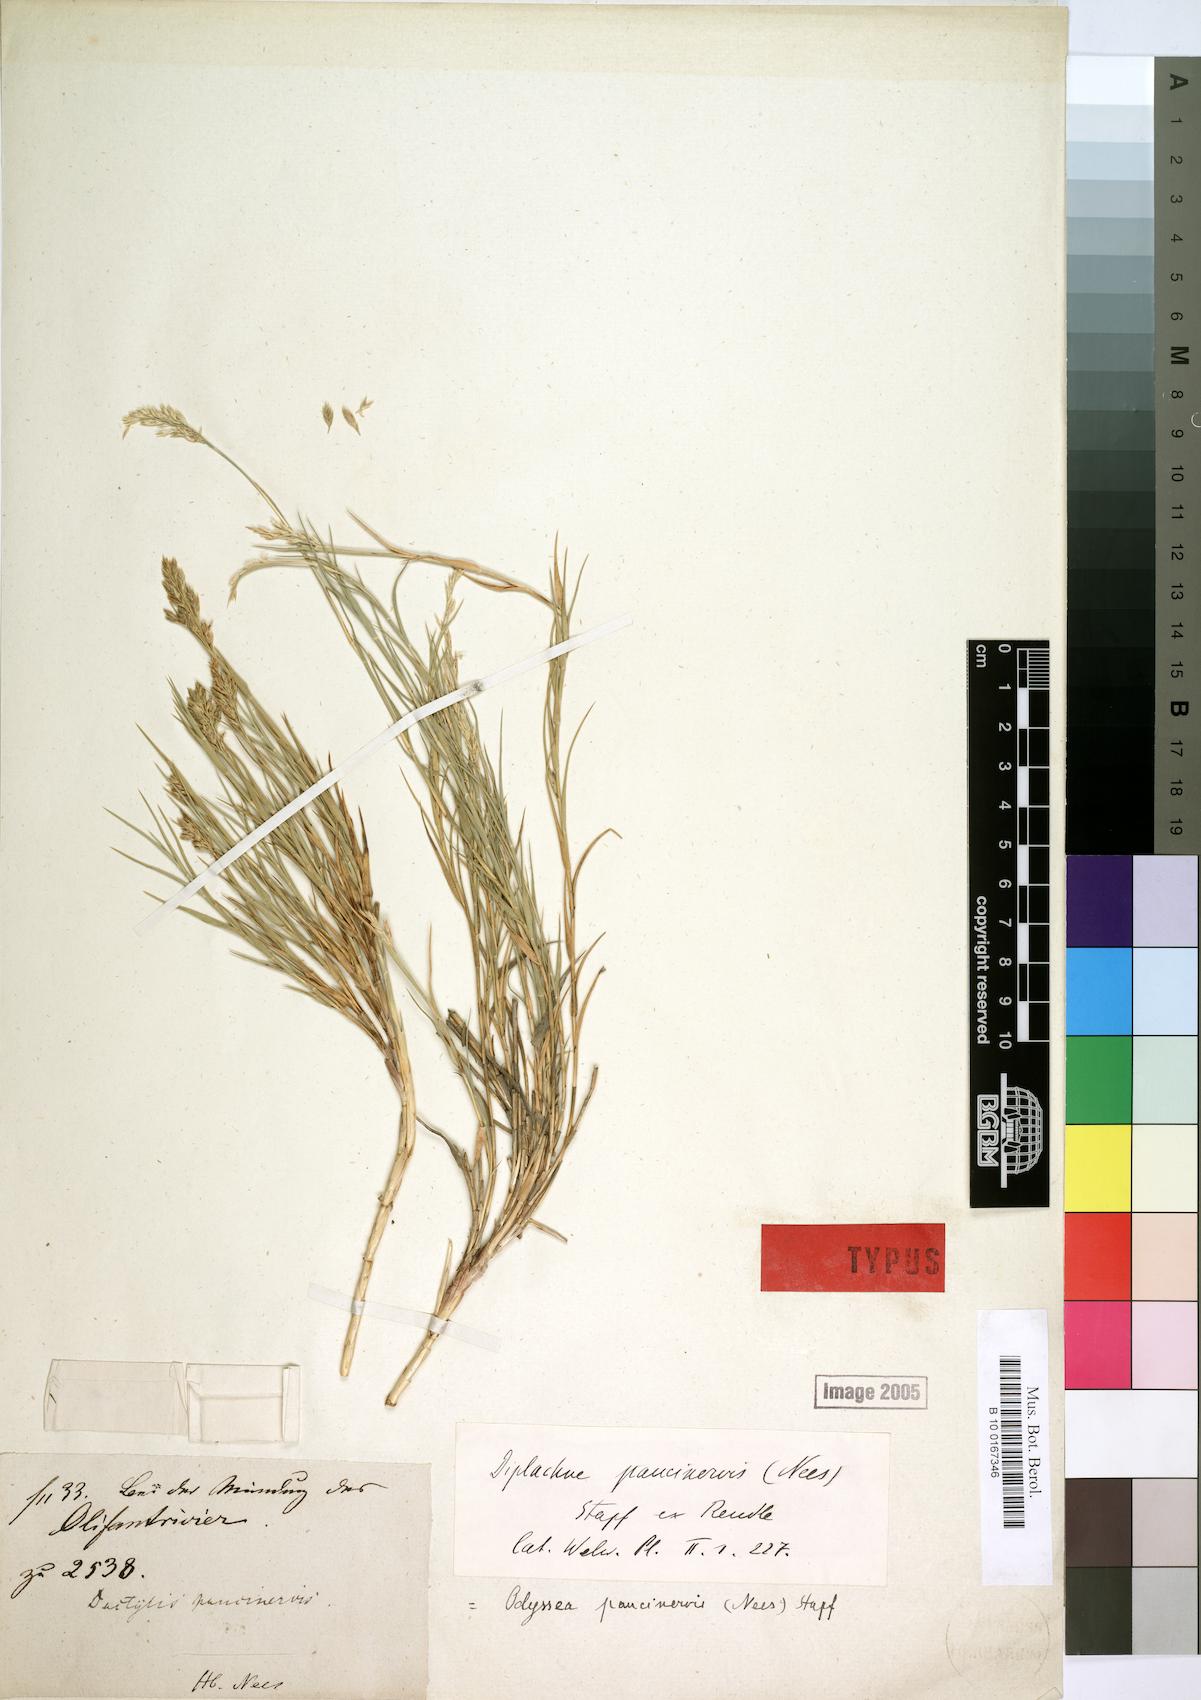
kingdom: Plantae
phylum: Tracheophyta
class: Liliopsida
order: Poales
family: Poaceae
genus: Odyssea
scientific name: Odyssea paucinervis
